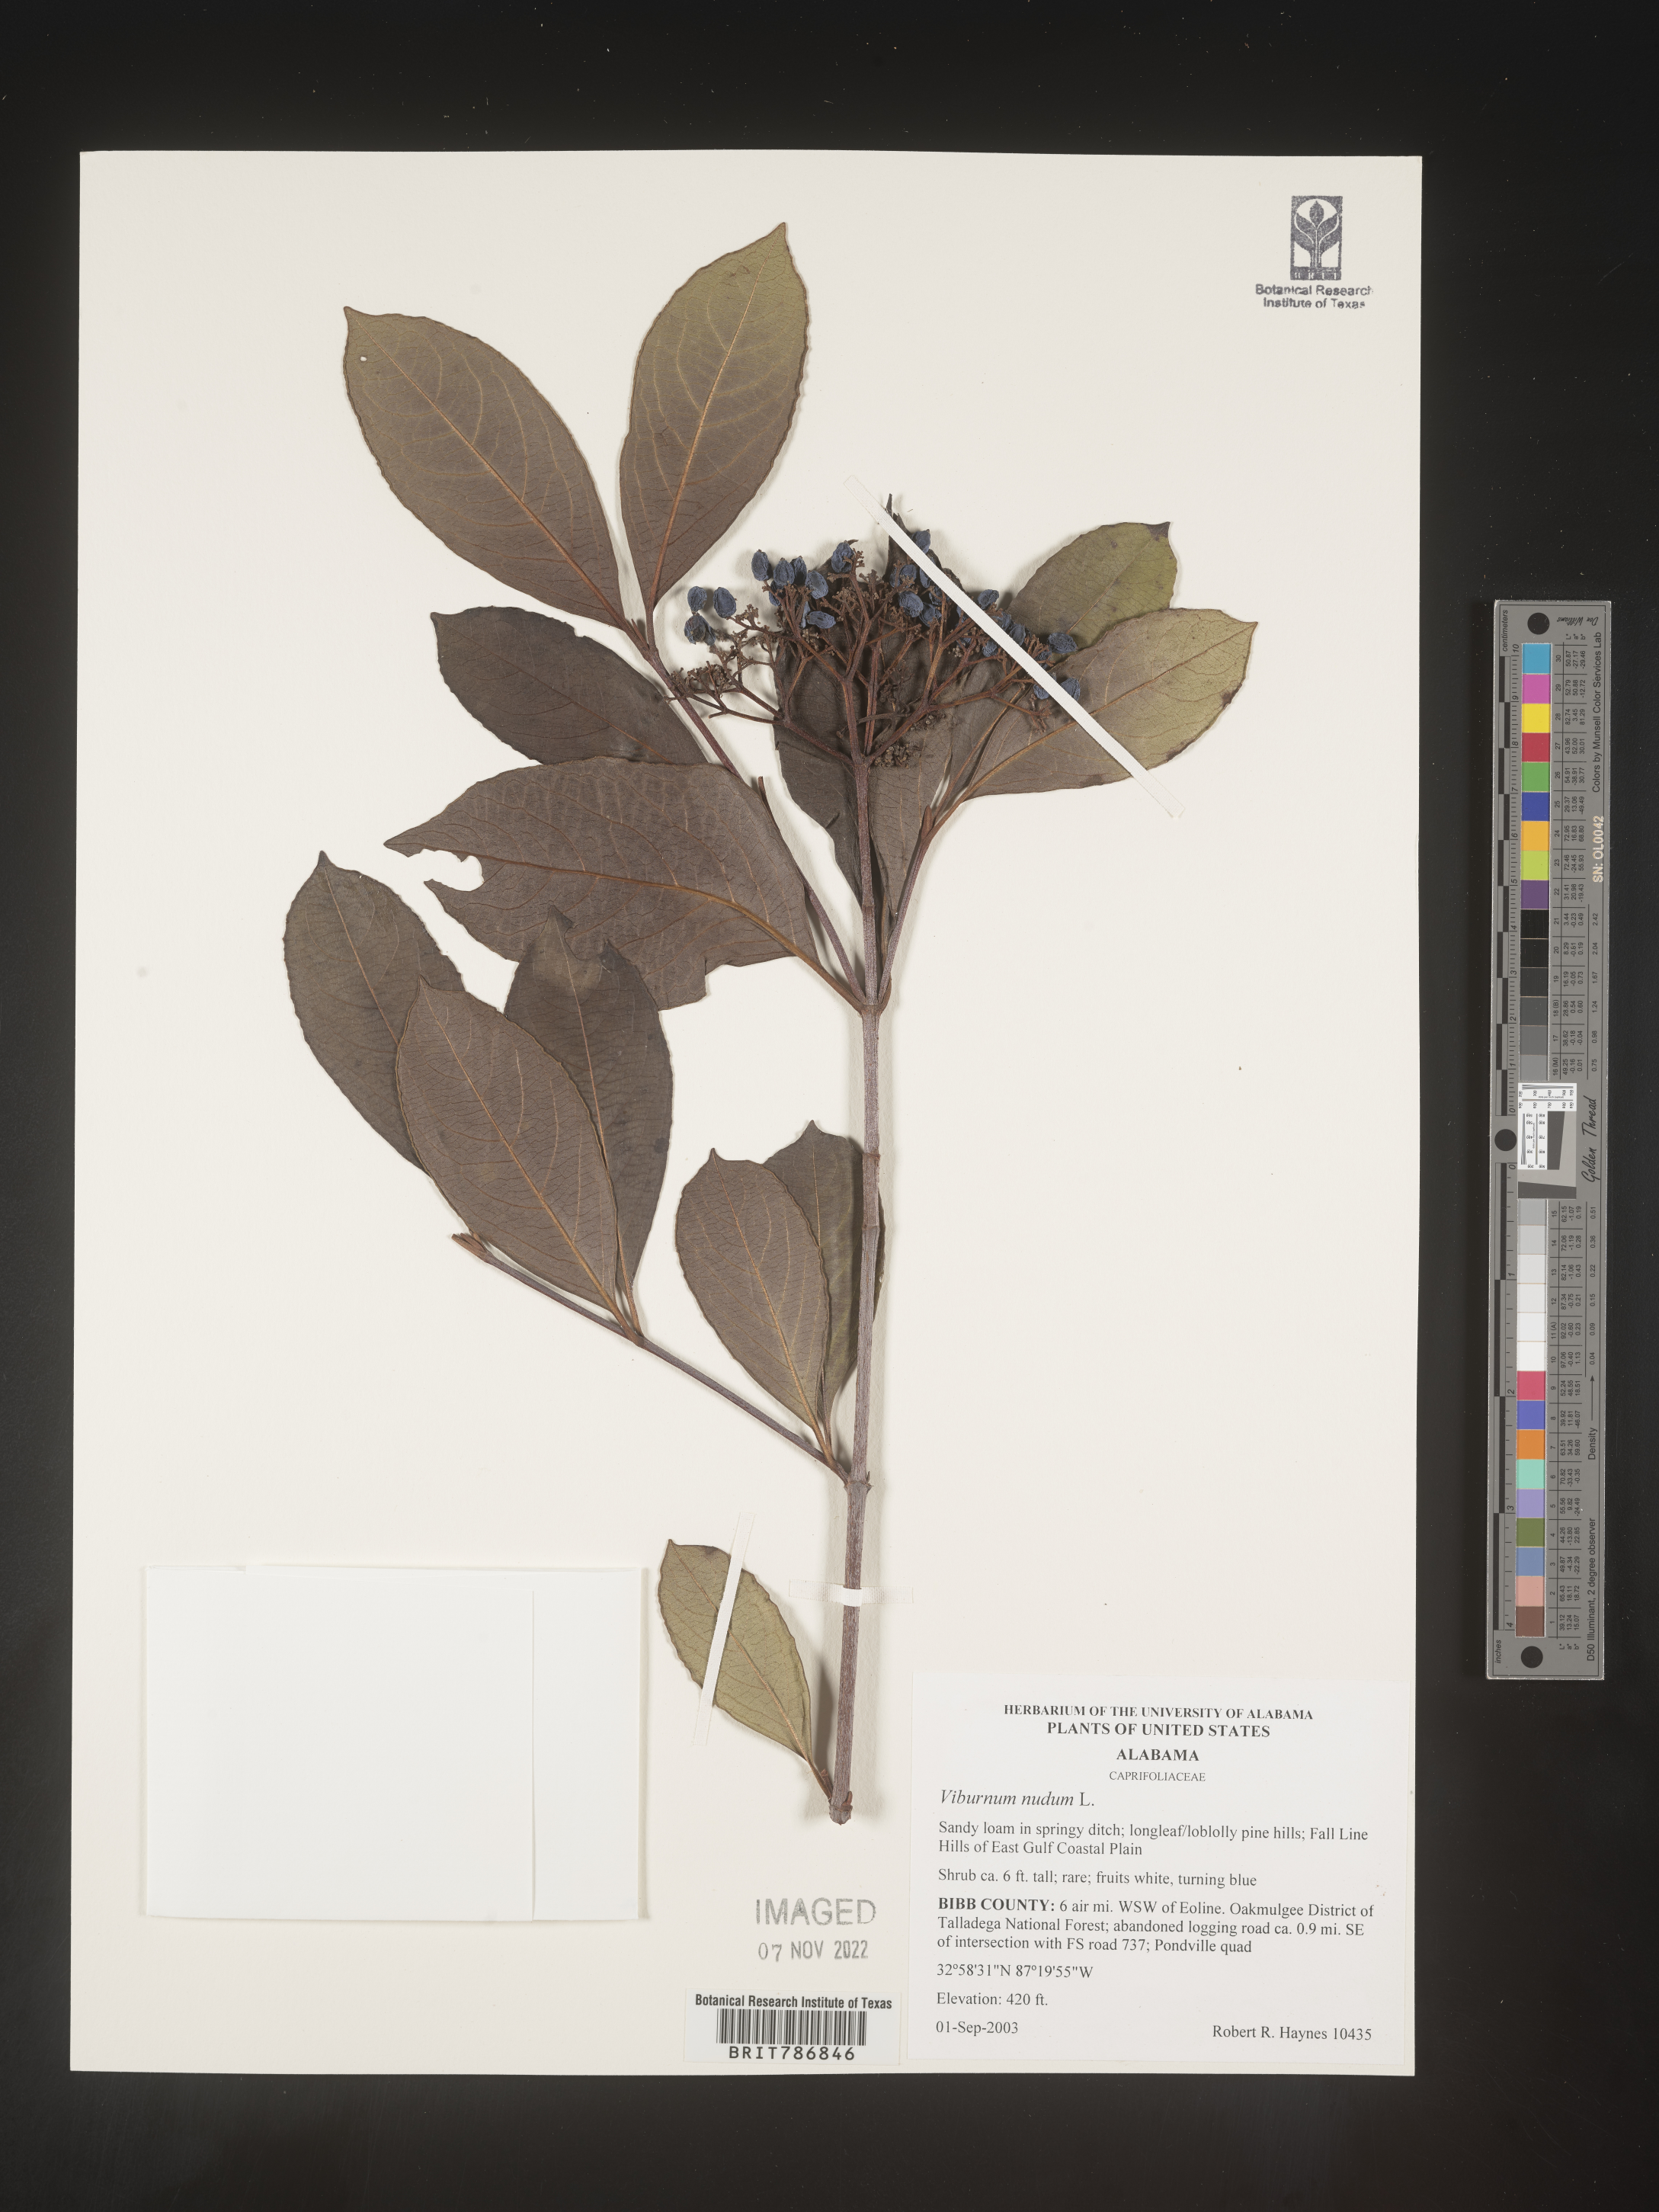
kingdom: Plantae
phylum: Tracheophyta
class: Magnoliopsida
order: Dipsacales
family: Viburnaceae
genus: Viburnum
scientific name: Viburnum nudum
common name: Possum haw
